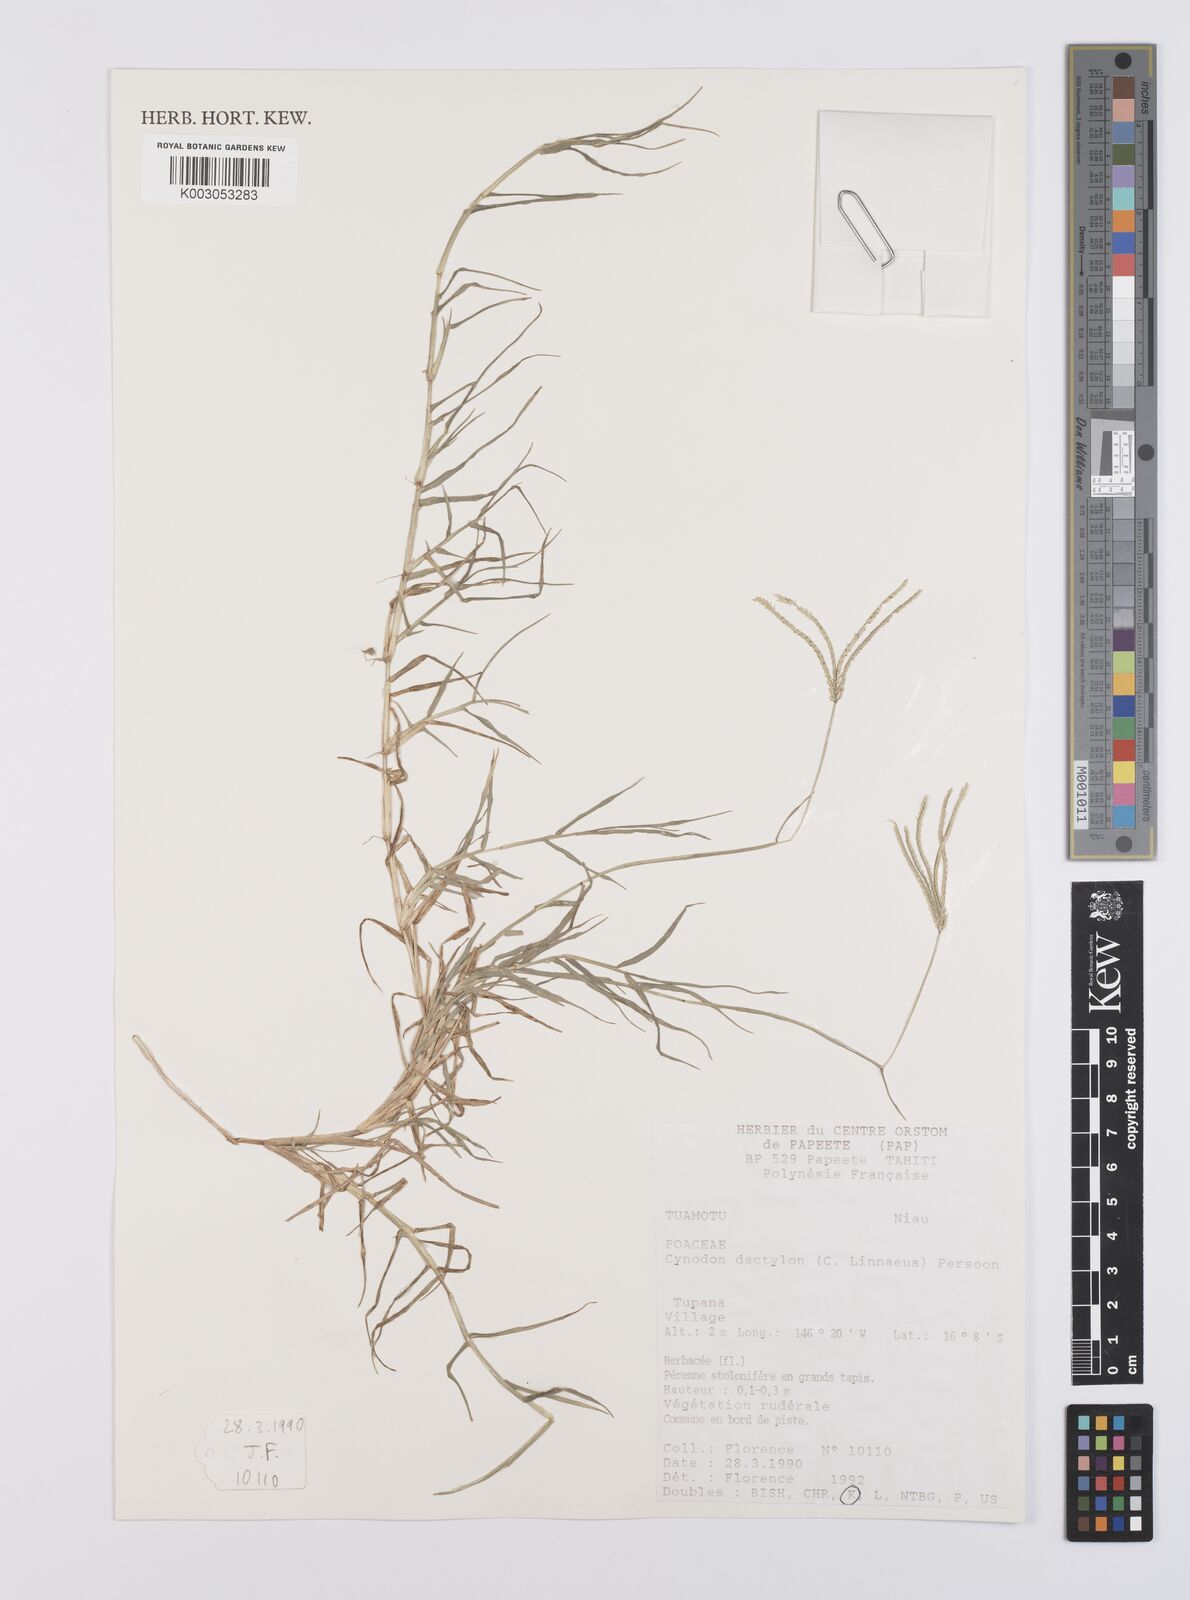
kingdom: Plantae
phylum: Tracheophyta
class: Liliopsida
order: Poales
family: Poaceae
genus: Cynodon
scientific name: Cynodon dactylon
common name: Bermuda grass
